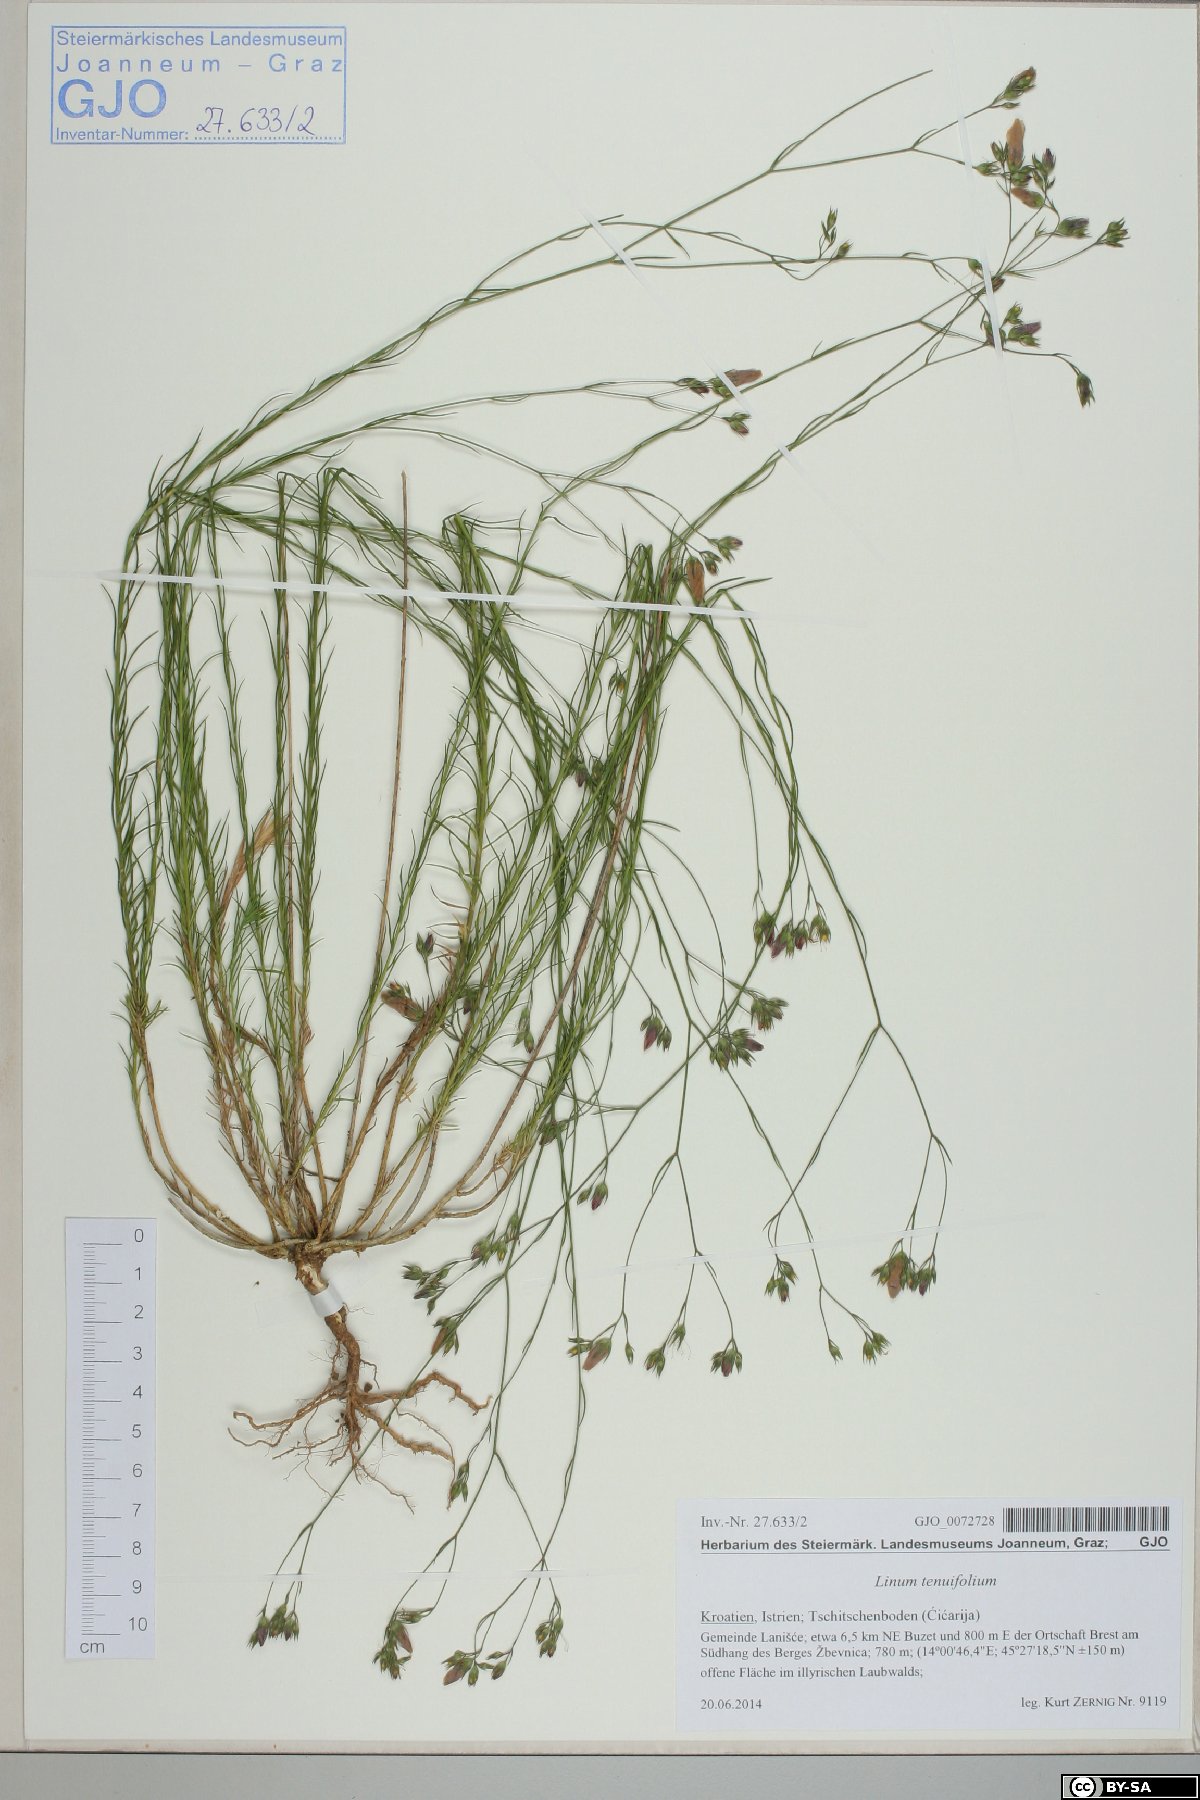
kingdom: Plantae
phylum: Tracheophyta
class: Magnoliopsida
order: Malpighiales
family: Linaceae
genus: Linum
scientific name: Linum tenuifolium
